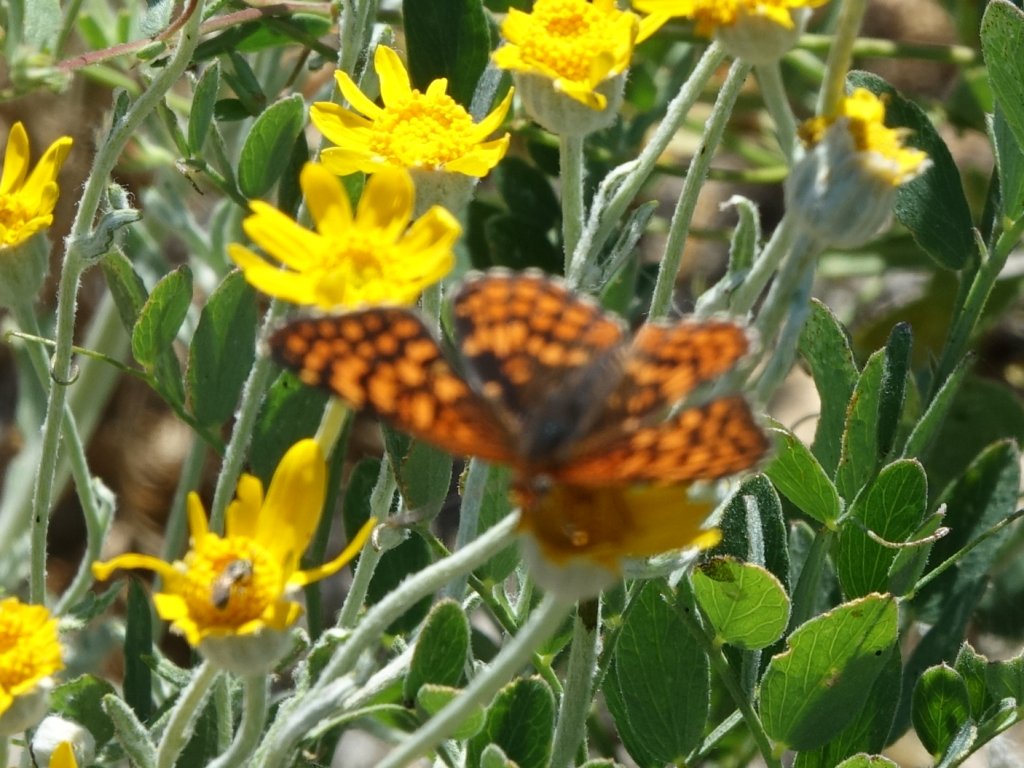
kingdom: Animalia
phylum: Arthropoda
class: Insecta
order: Lepidoptera
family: Nymphalidae
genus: Chlosyne
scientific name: Chlosyne palla
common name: Northern Checkerspot
